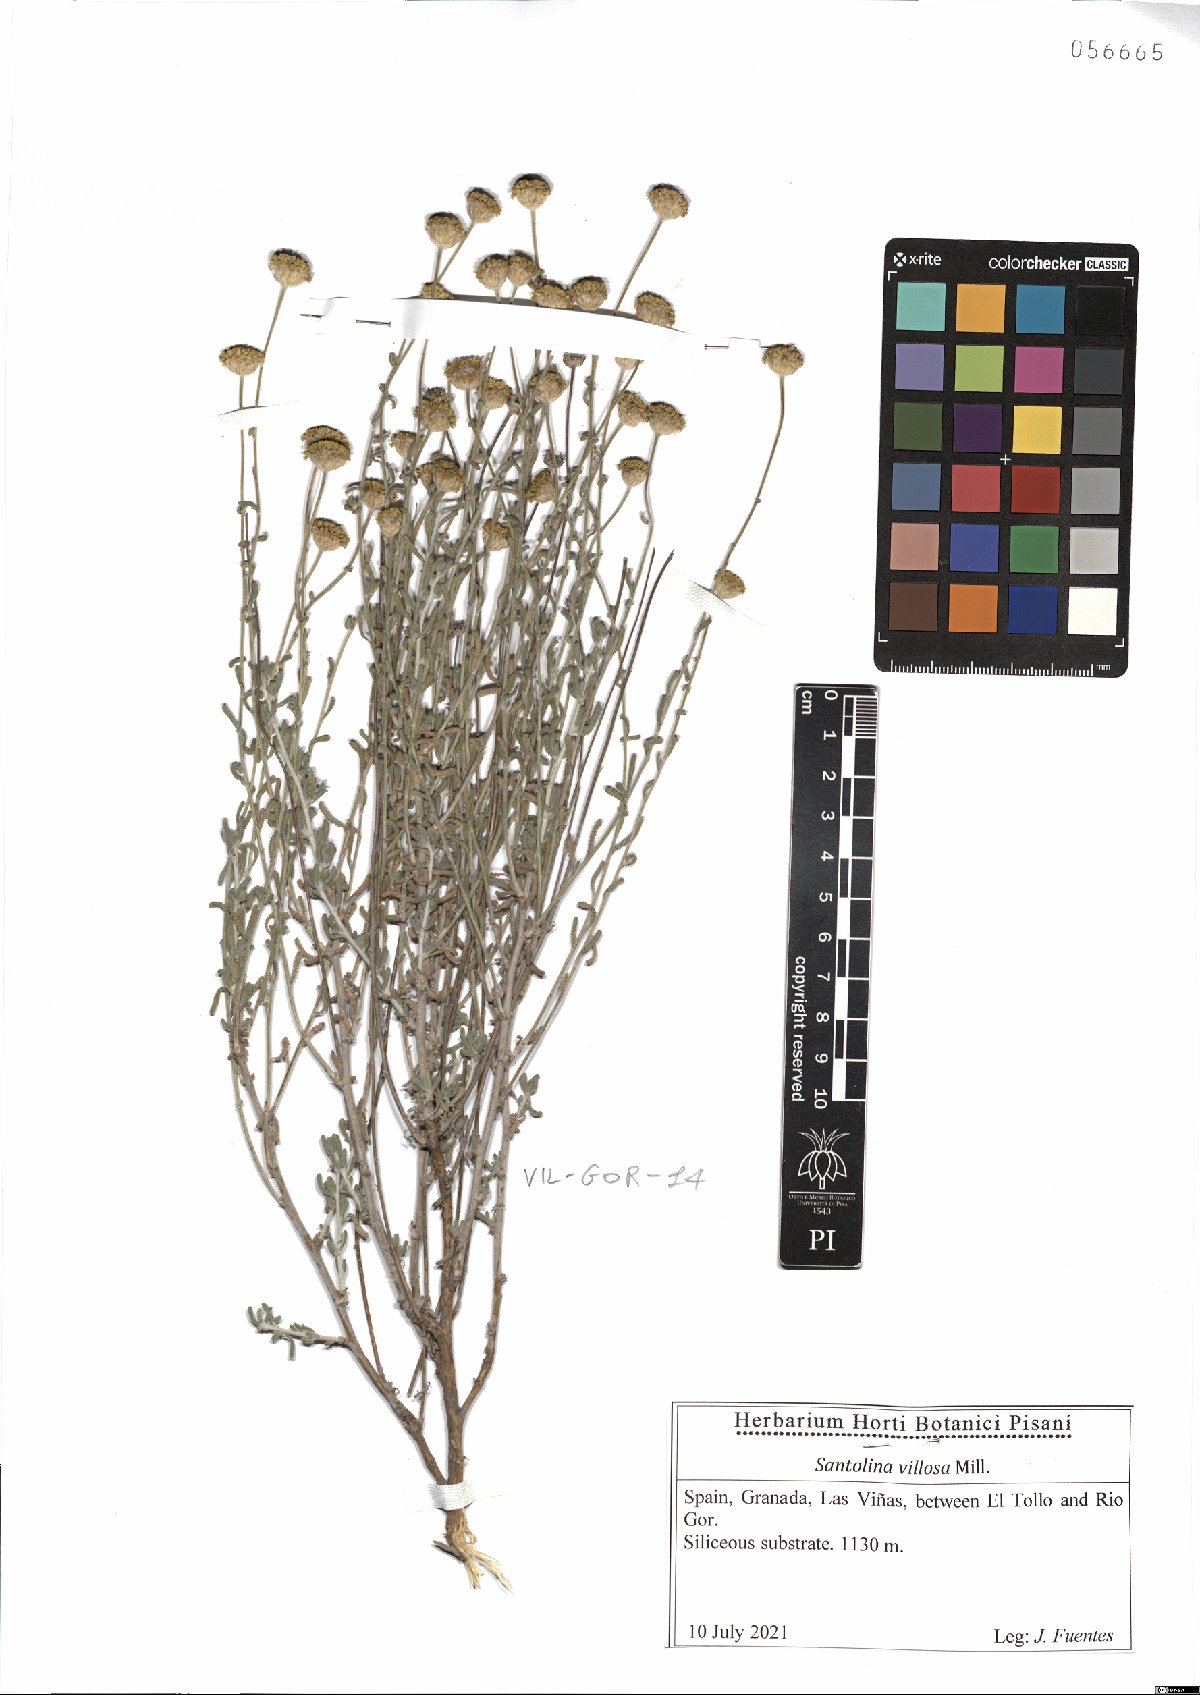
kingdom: Plantae
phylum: Tracheophyta
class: Magnoliopsida
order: Asterales
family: Asteraceae
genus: Santolina
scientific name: Santolina chamaecyparissus
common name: Lavender-cotton
